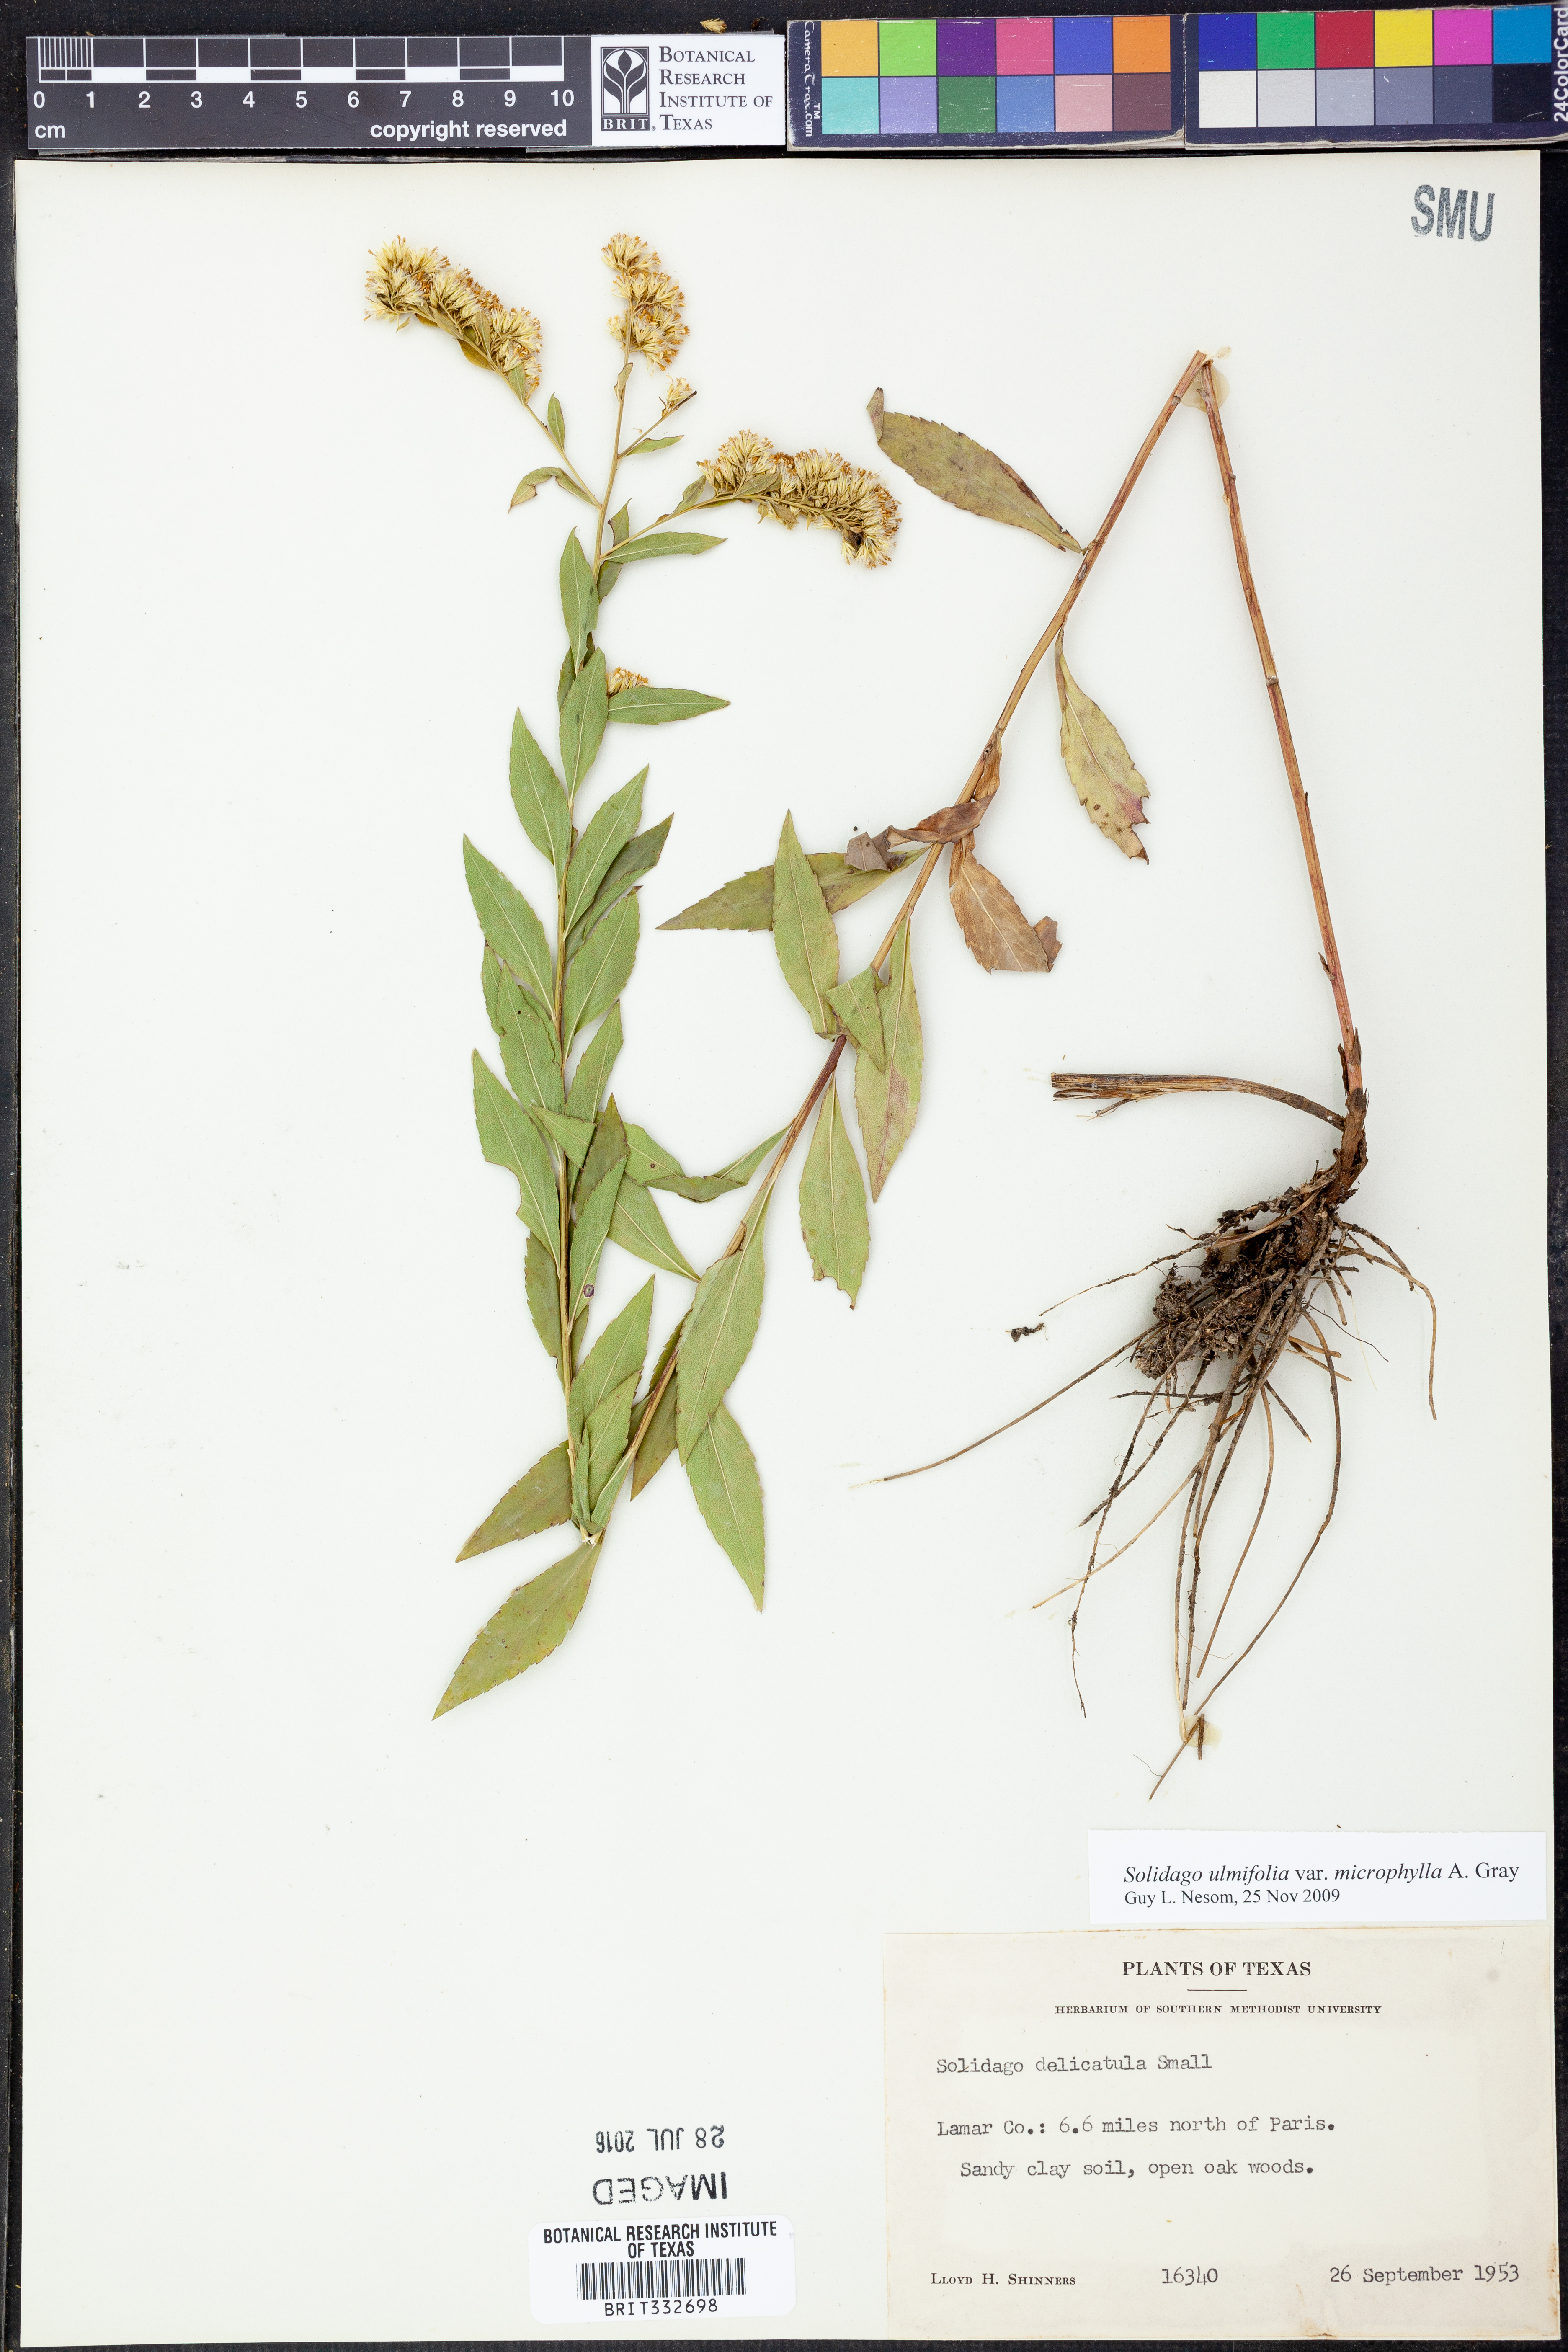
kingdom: Plantae
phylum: Tracheophyta
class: Magnoliopsida
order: Asterales
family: Asteraceae
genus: Solidago
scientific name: Solidago delicatula
